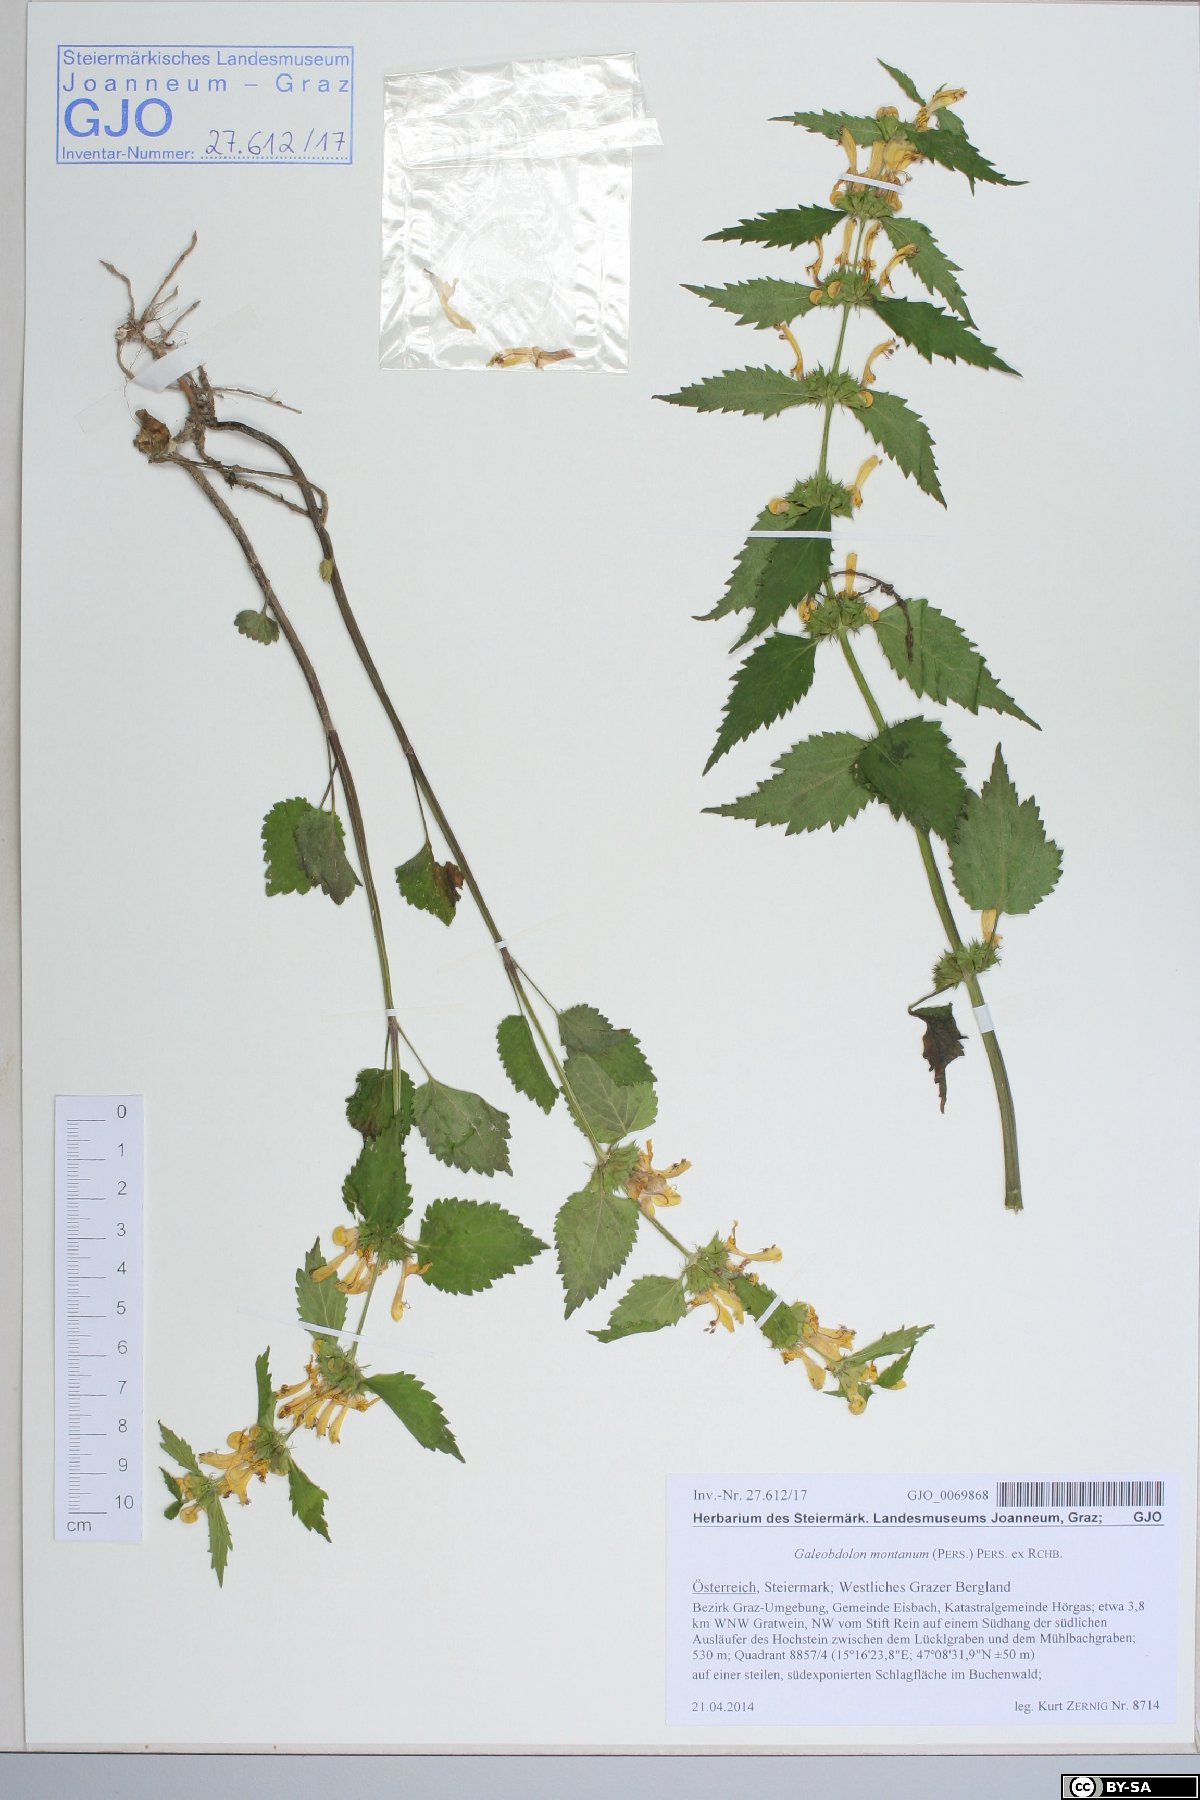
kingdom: Plantae
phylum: Tracheophyta
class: Magnoliopsida
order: Lamiales
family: Lamiaceae
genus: Lamium
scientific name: Lamium galeobdolon
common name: Yellow archangel
